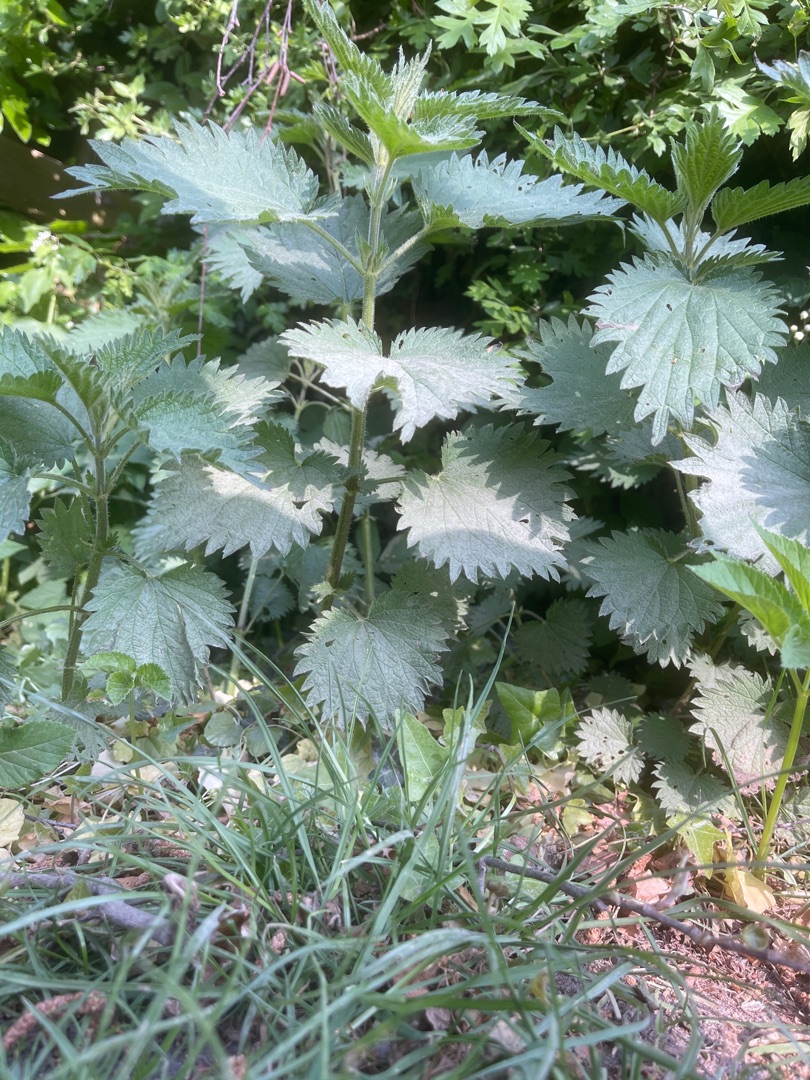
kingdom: Plantae
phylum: Tracheophyta
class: Magnoliopsida
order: Rosales
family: Urticaceae
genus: Urtica
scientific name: Urtica dioica
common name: Stor nælde
